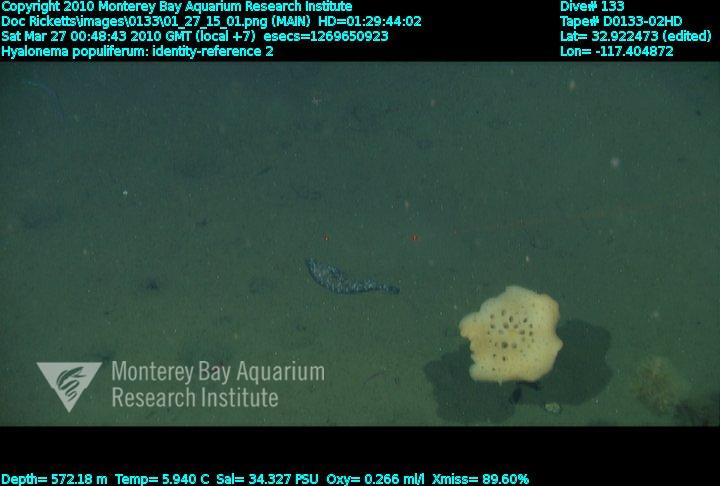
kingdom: Animalia
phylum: Porifera
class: Hexactinellida
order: Amphidiscosida
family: Hyalonematidae
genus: Hyalonema
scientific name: Hyalonema populiferum
